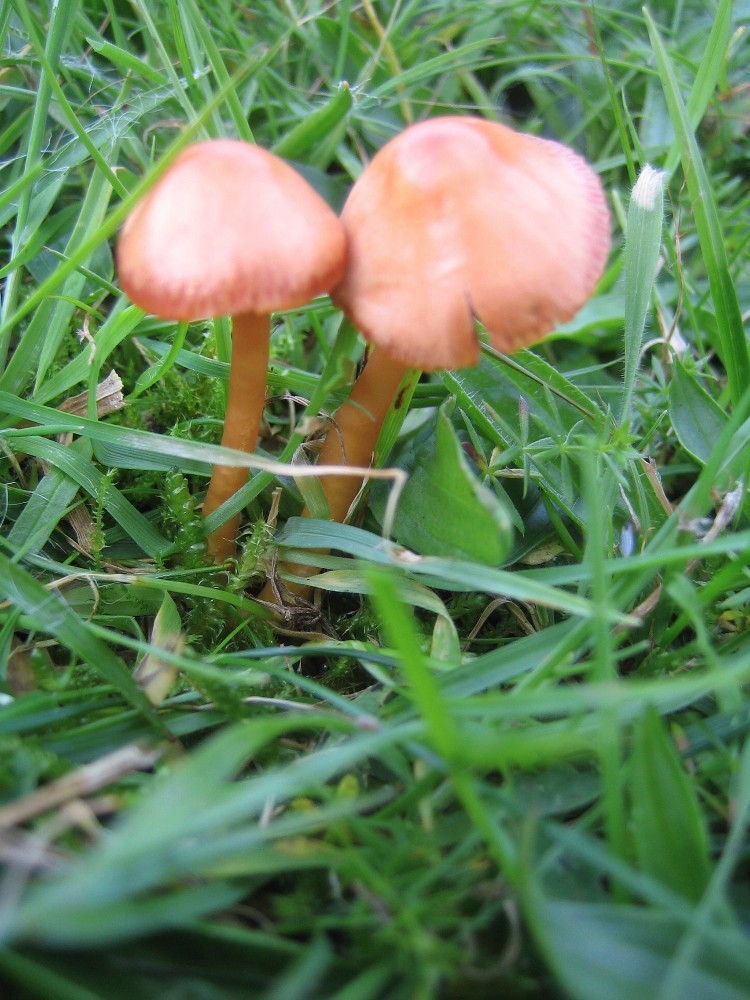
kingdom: Fungi
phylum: Basidiomycota
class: Agaricomycetes
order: Agaricales
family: Hygrophoraceae
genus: Gliophorus
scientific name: Gliophorus europerplexus
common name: Butterscotch waxcap
